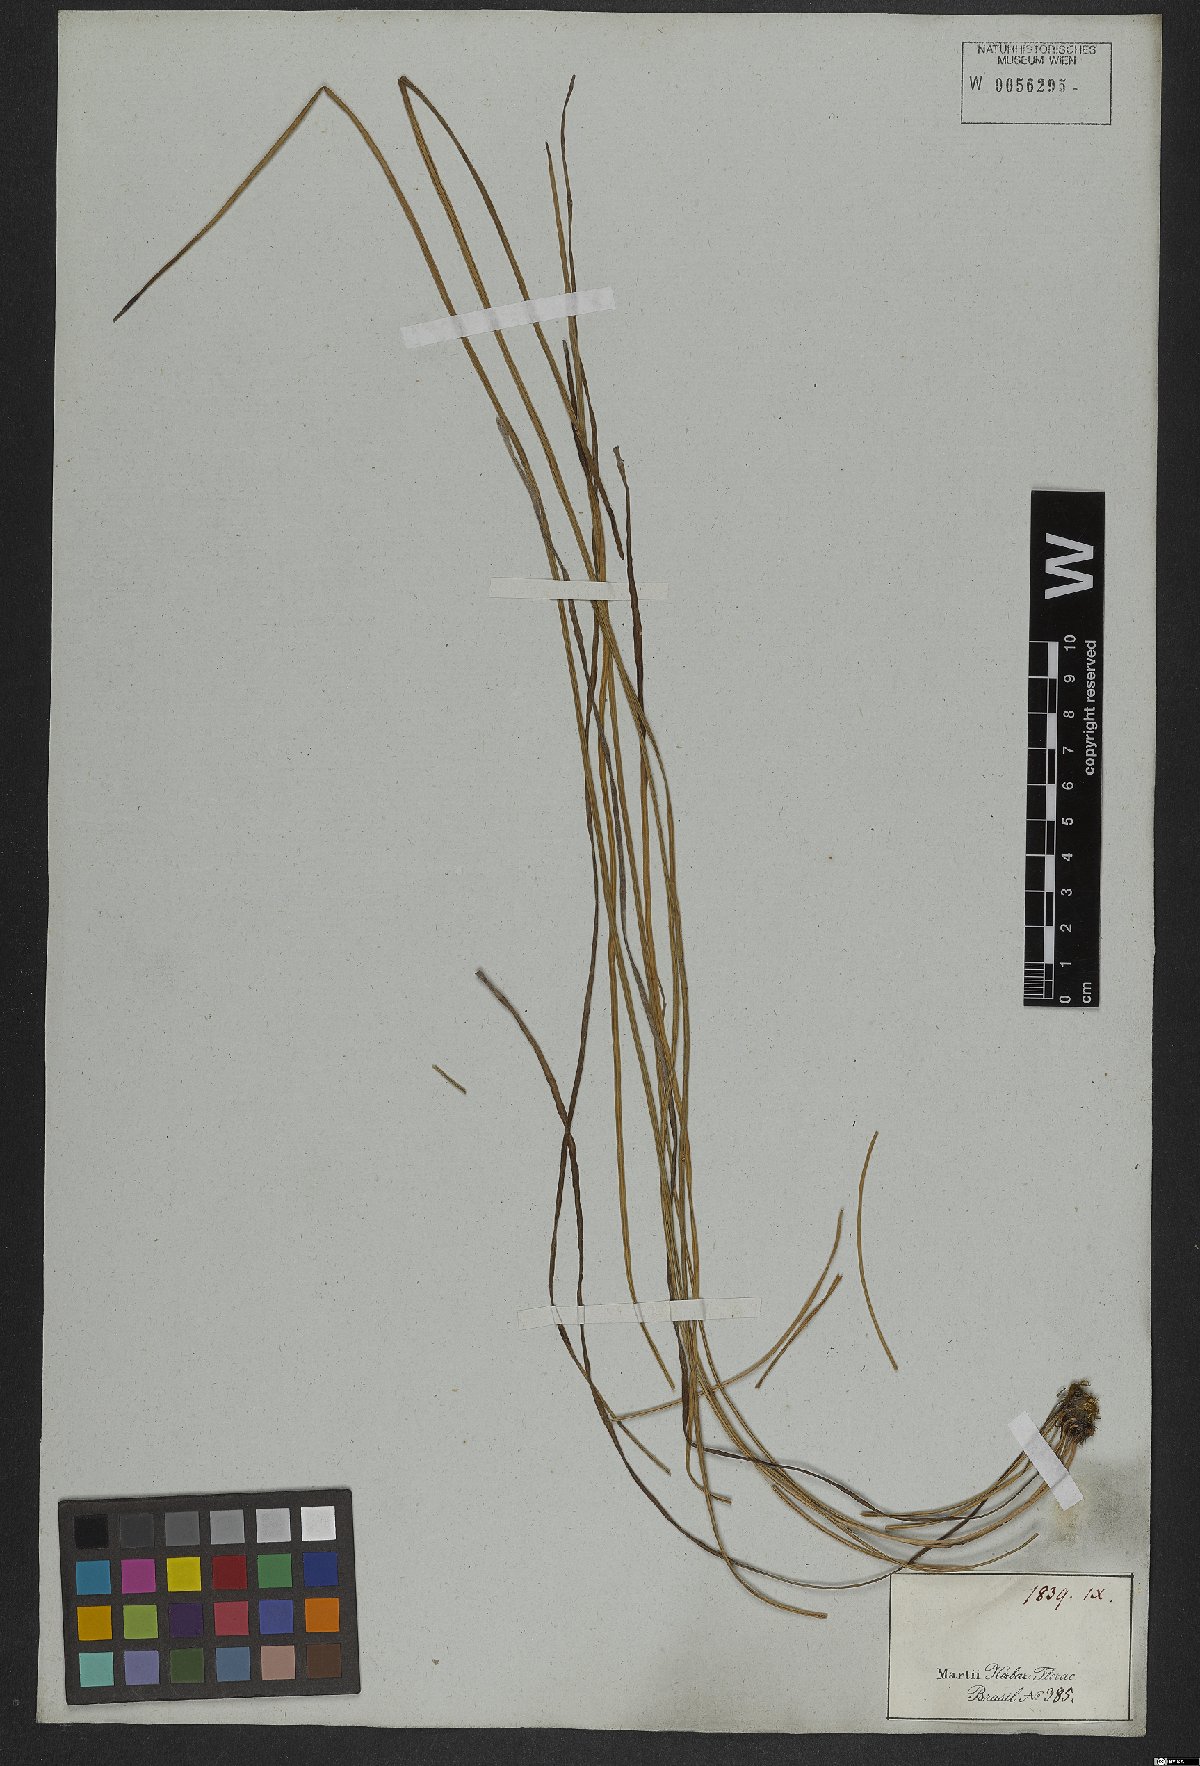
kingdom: Plantae
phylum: Tracheophyta
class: Polypodiopsida
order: Polypodiales
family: Pteridaceae
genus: Vittaria
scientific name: Vittaria lineata
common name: Shoestring fern
